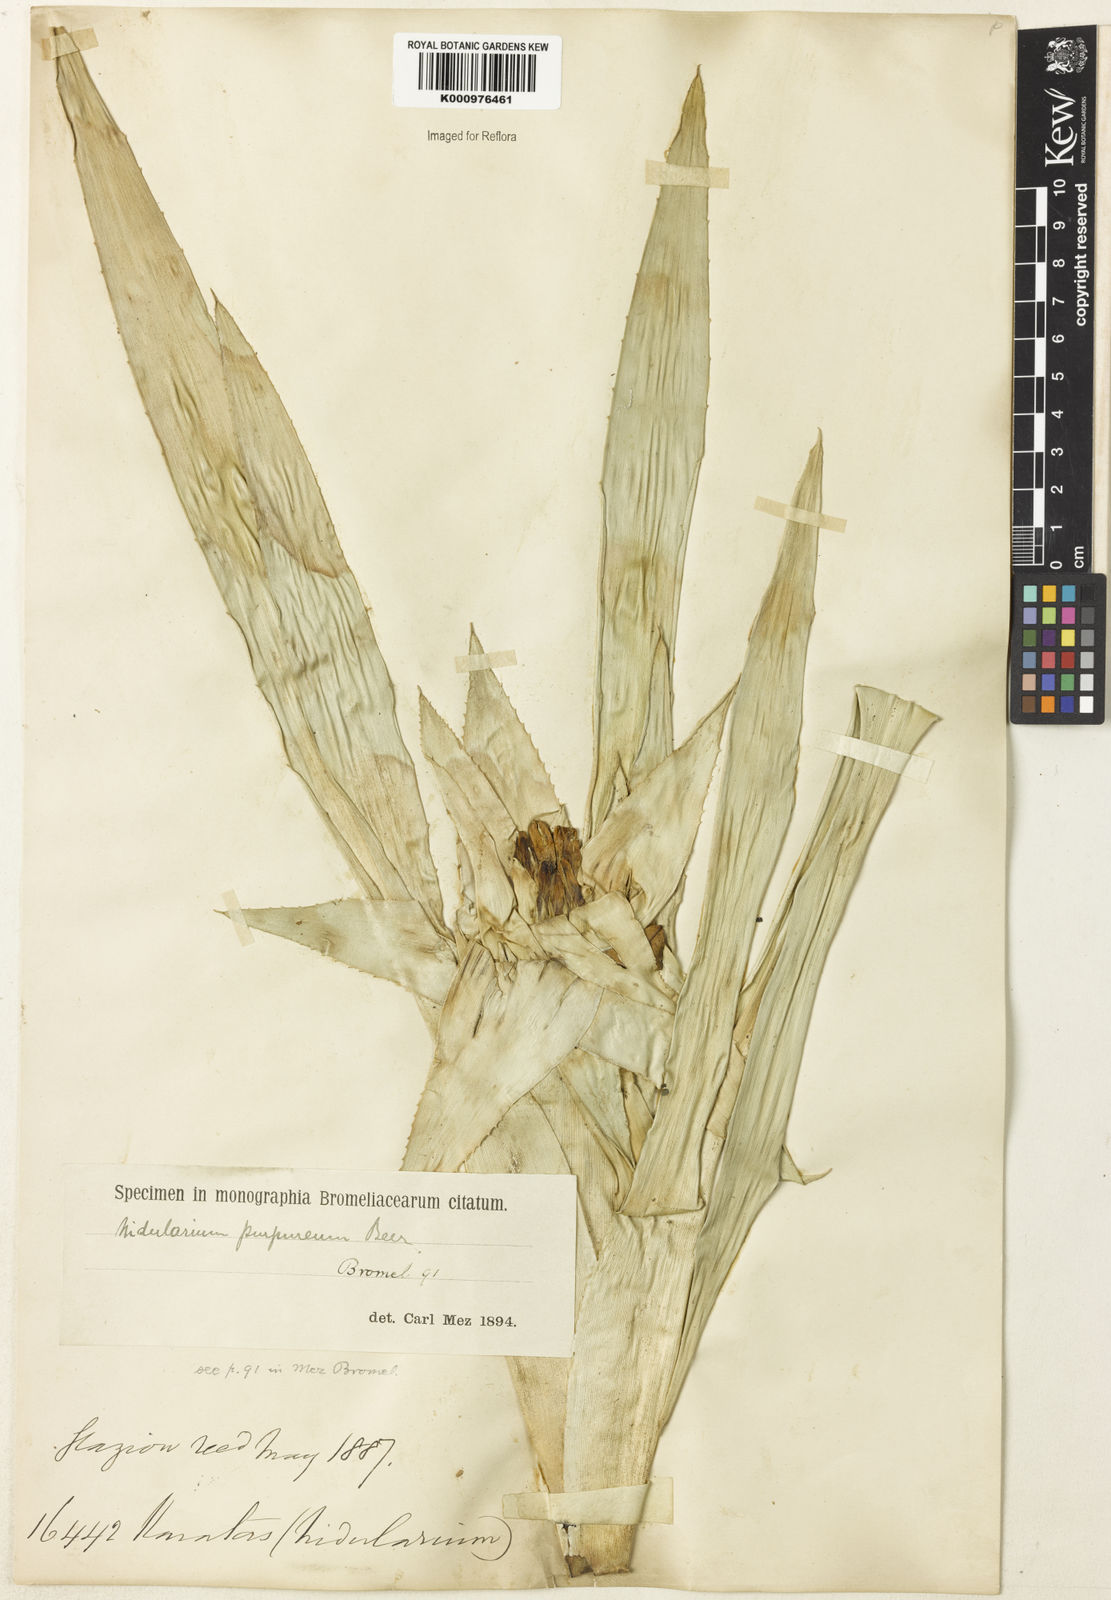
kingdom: Plantae
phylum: Tracheophyta
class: Liliopsida
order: Poales
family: Bromeliaceae
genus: Nidularium
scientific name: Nidularium purpureum
